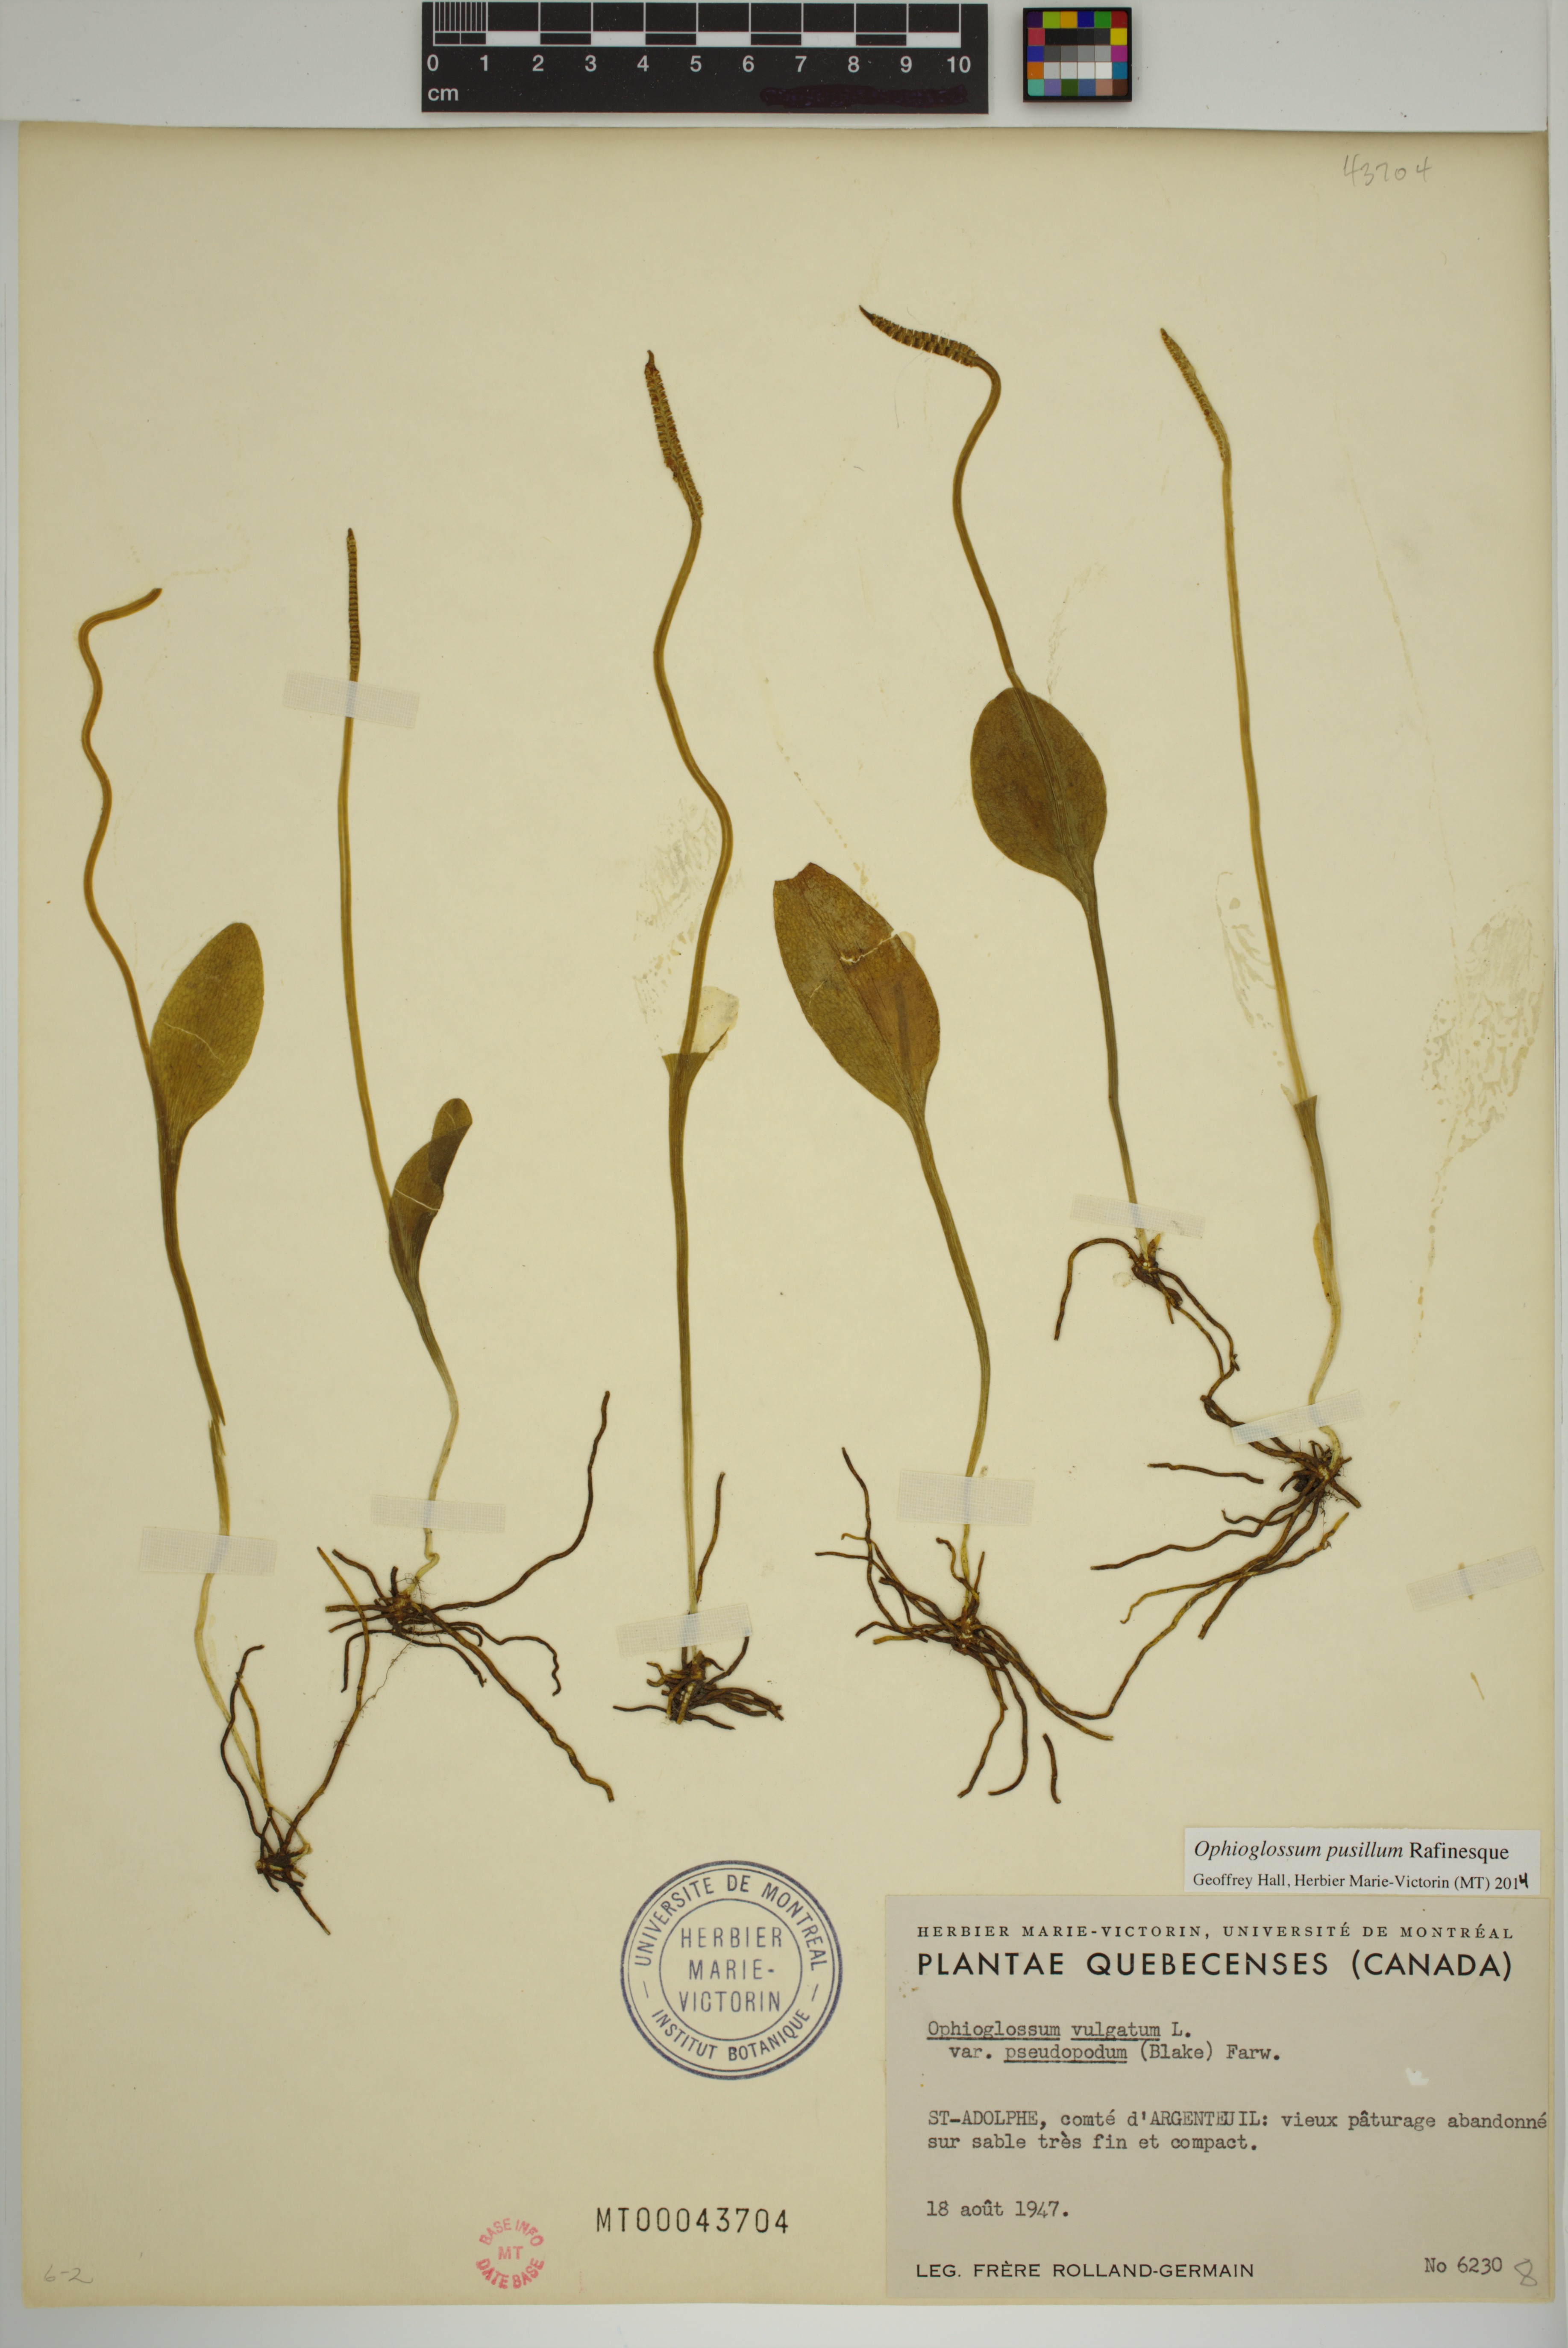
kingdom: Plantae
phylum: Tracheophyta
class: Polypodiopsida
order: Ophioglossales
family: Ophioglossaceae
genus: Ophioglossum
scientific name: Ophioglossum pusillum
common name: Northern adder's-tongue
